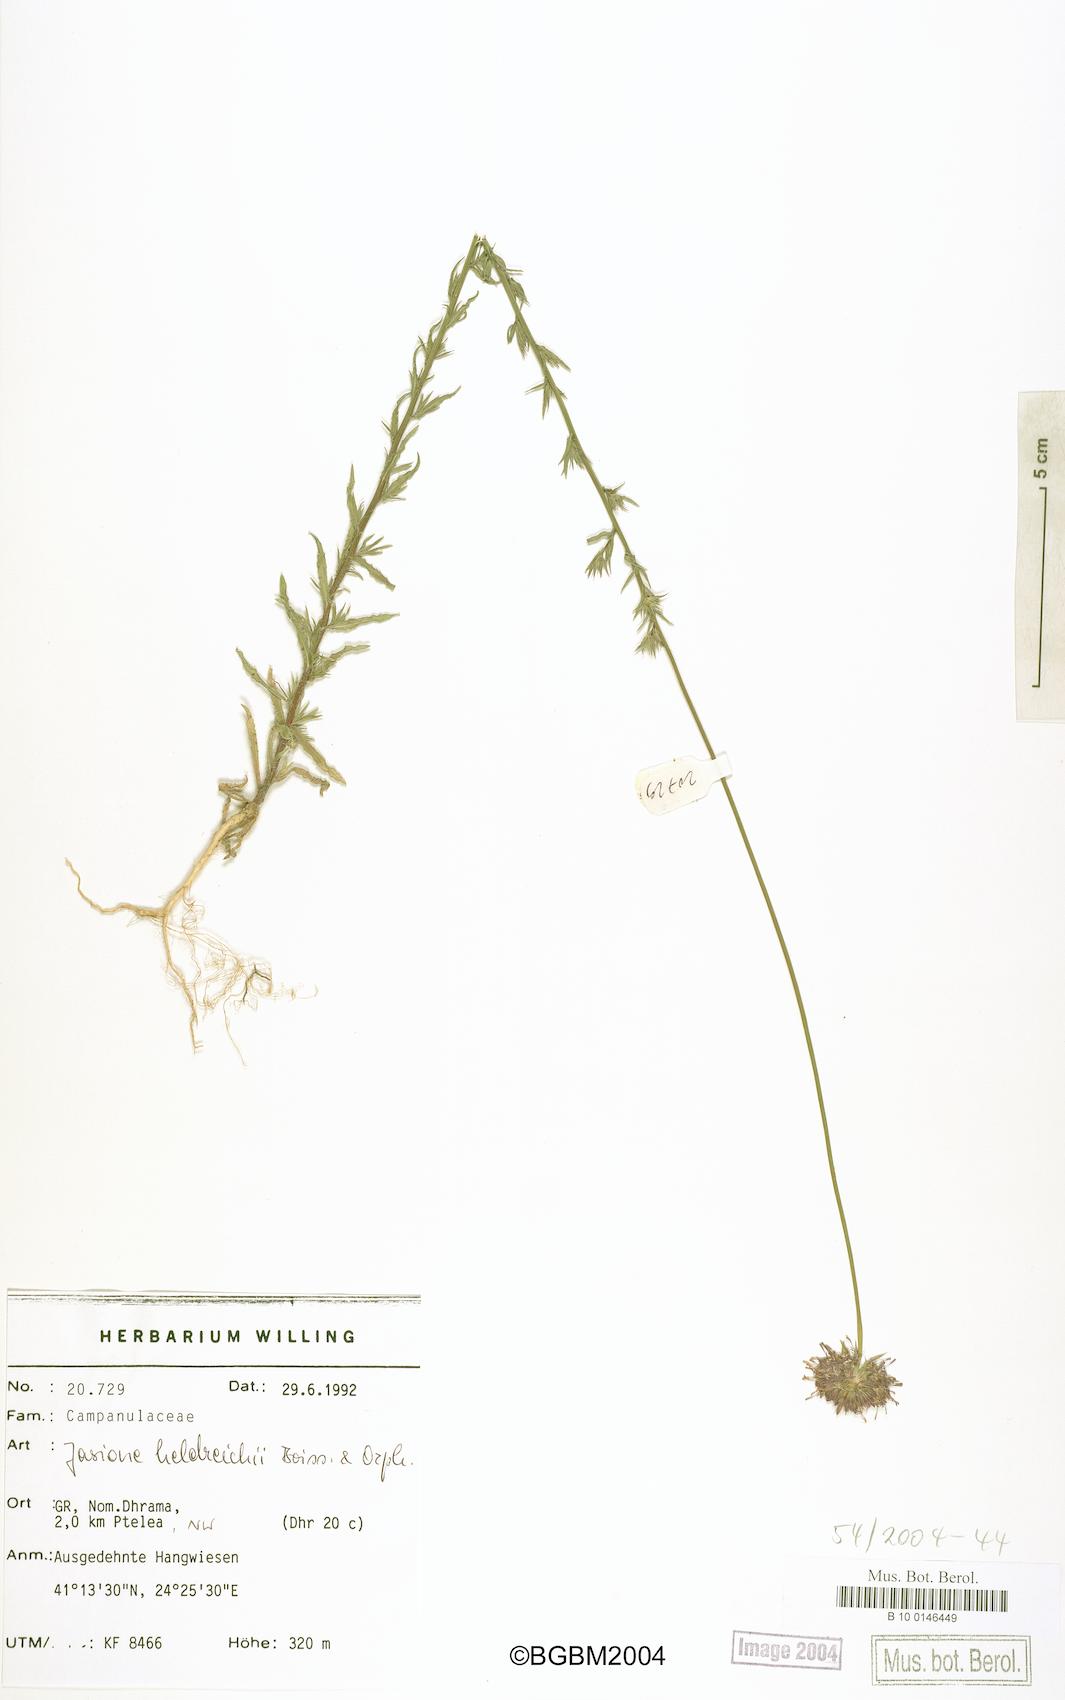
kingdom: Plantae
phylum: Tracheophyta
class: Magnoliopsida
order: Asterales
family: Campanulaceae
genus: Jasione
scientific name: Jasione heldreichii
